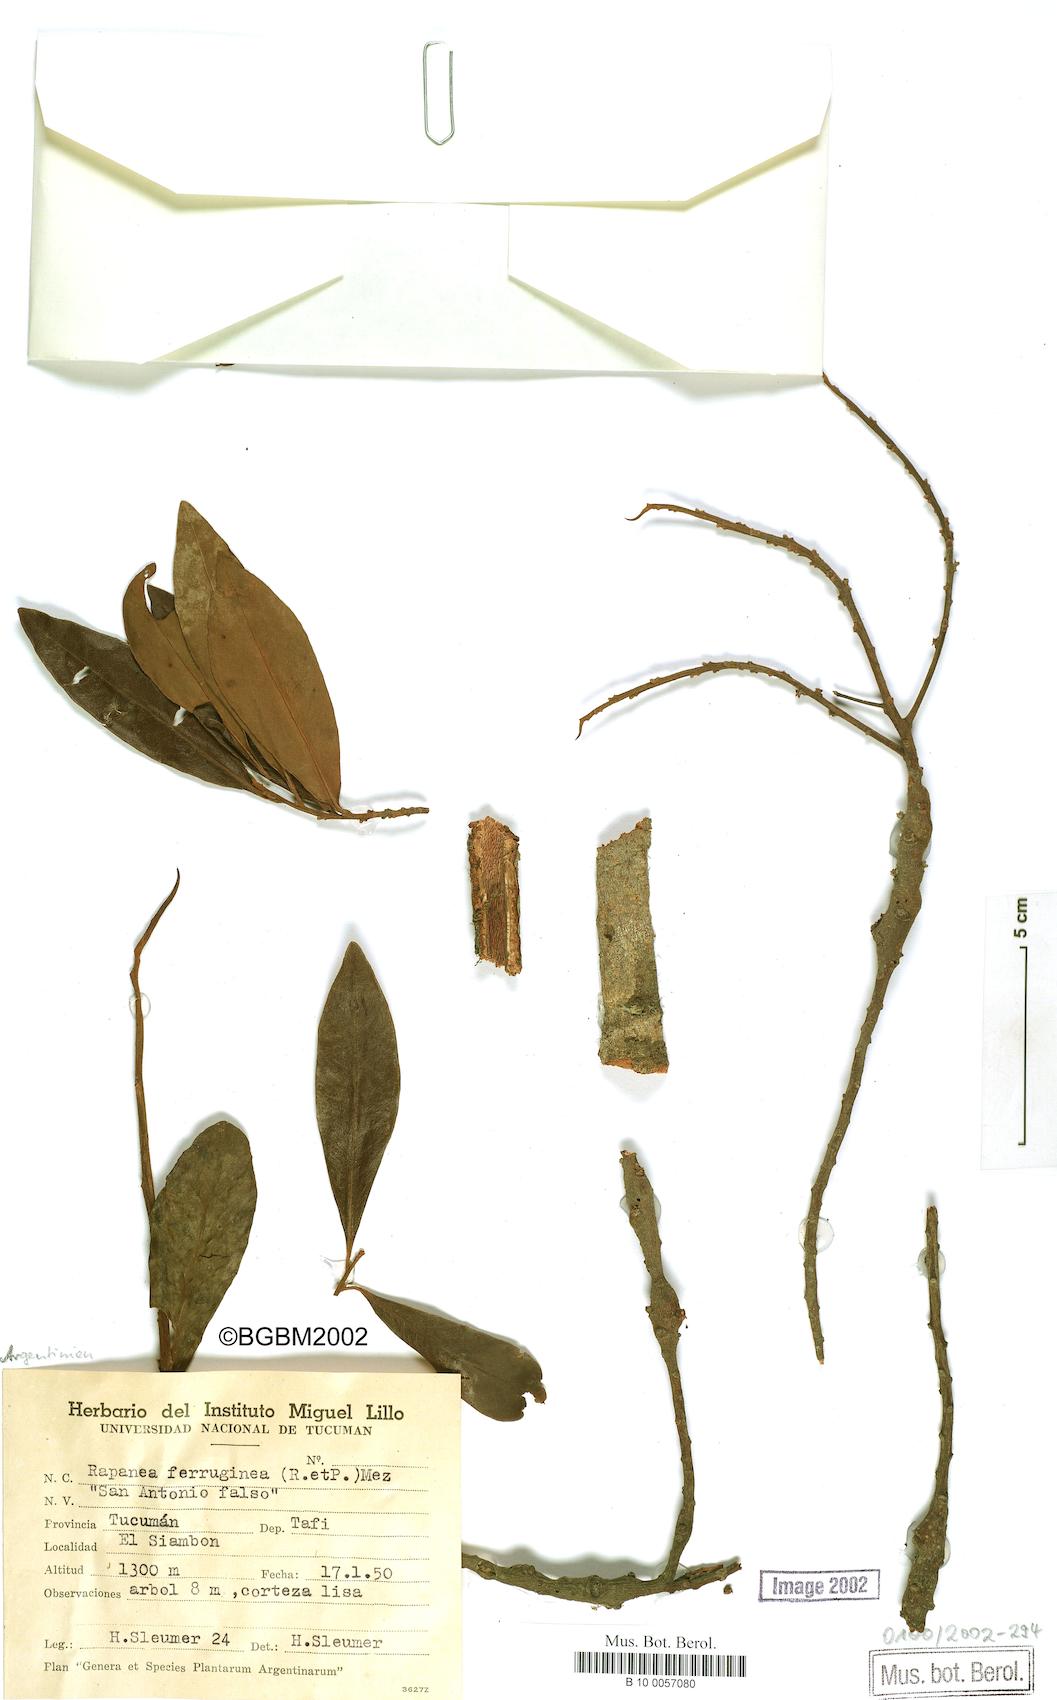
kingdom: Plantae
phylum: Tracheophyta
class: Magnoliopsida
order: Ericales
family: Primulaceae
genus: Myrsine
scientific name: Myrsine coriacea
